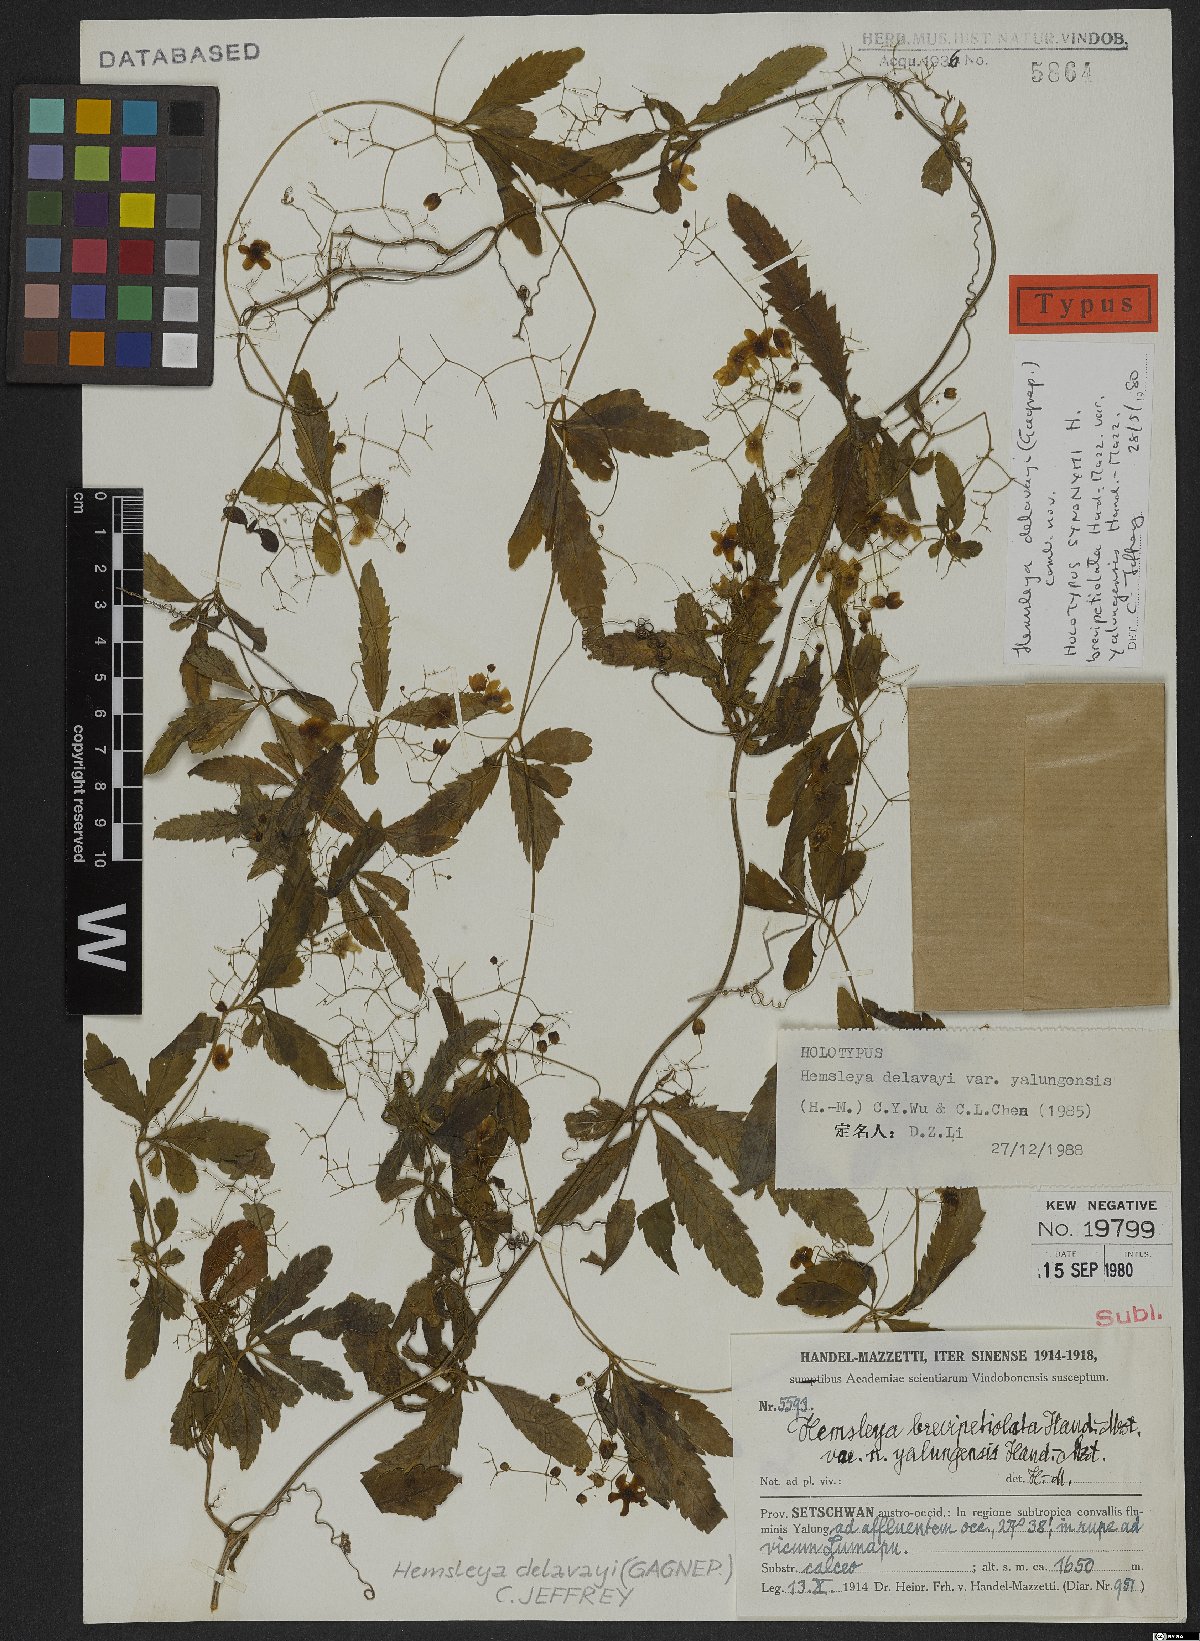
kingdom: Plantae
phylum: Tracheophyta
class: Magnoliopsida
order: Cucurbitales
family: Cucurbitaceae
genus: Hemsleya
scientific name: Hemsleya delavayi
